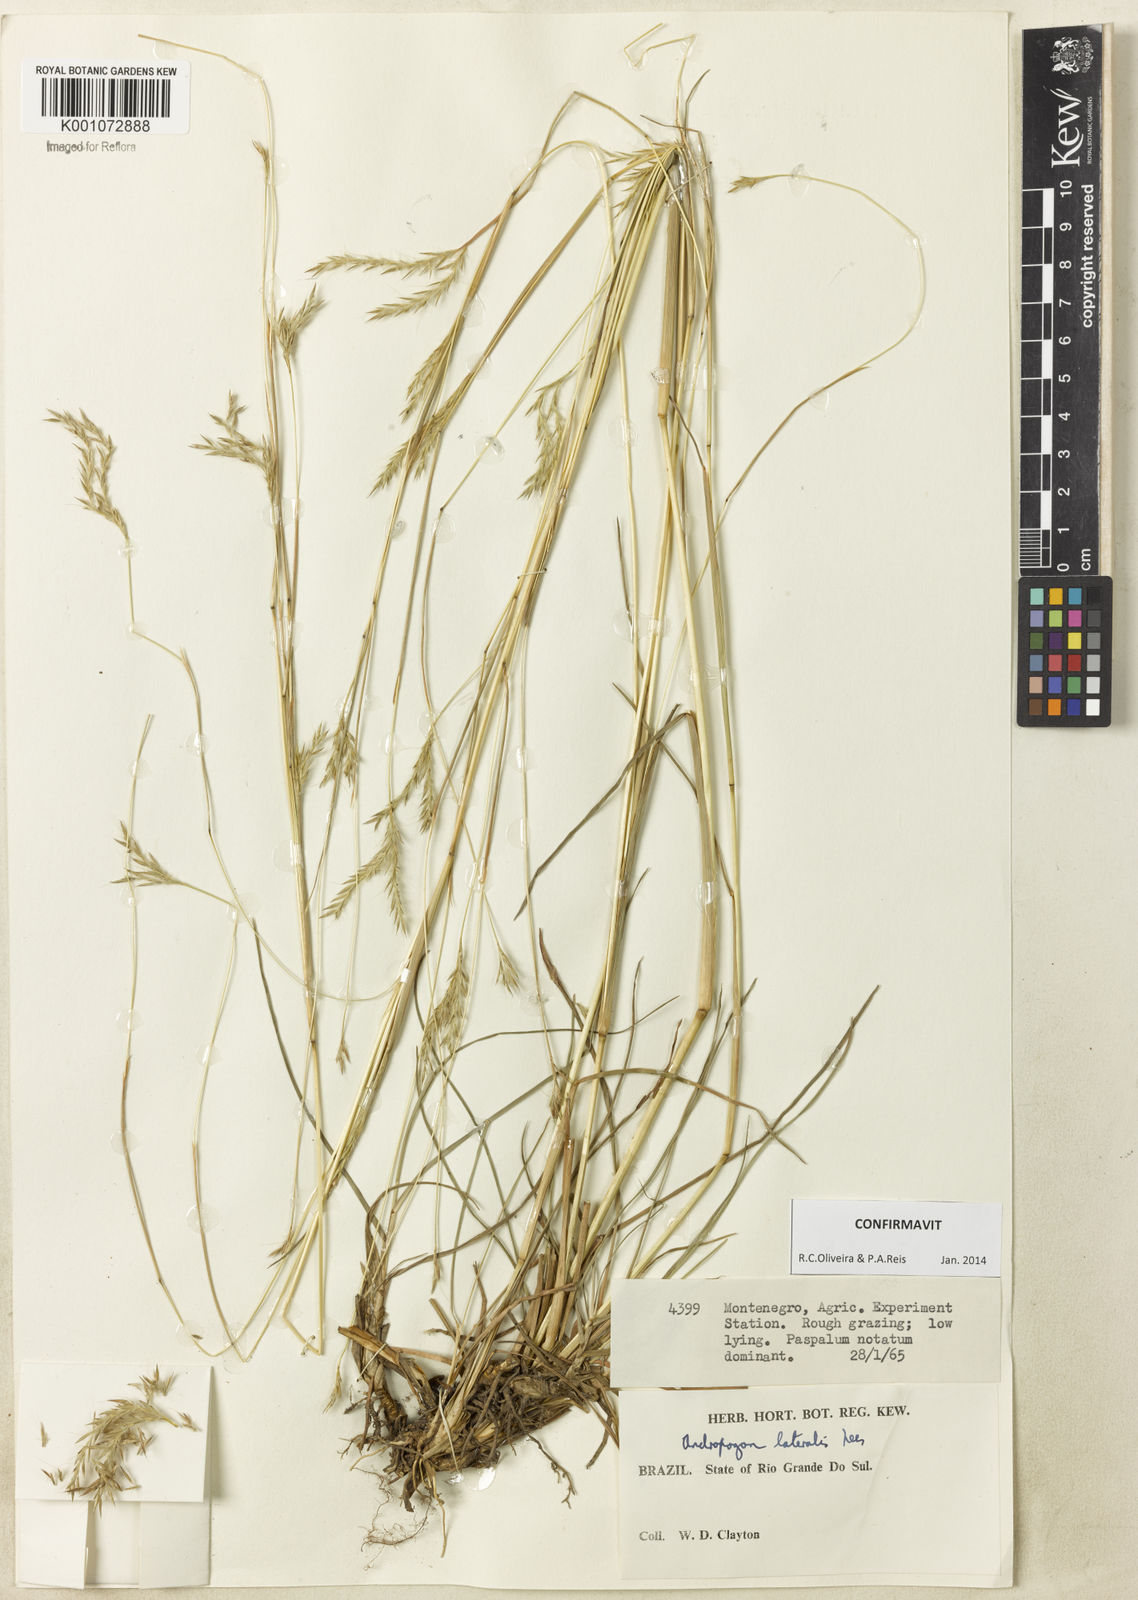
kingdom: Plantae
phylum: Tracheophyta
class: Liliopsida
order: Poales
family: Poaceae
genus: Andropogon
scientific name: Andropogon lateralis
